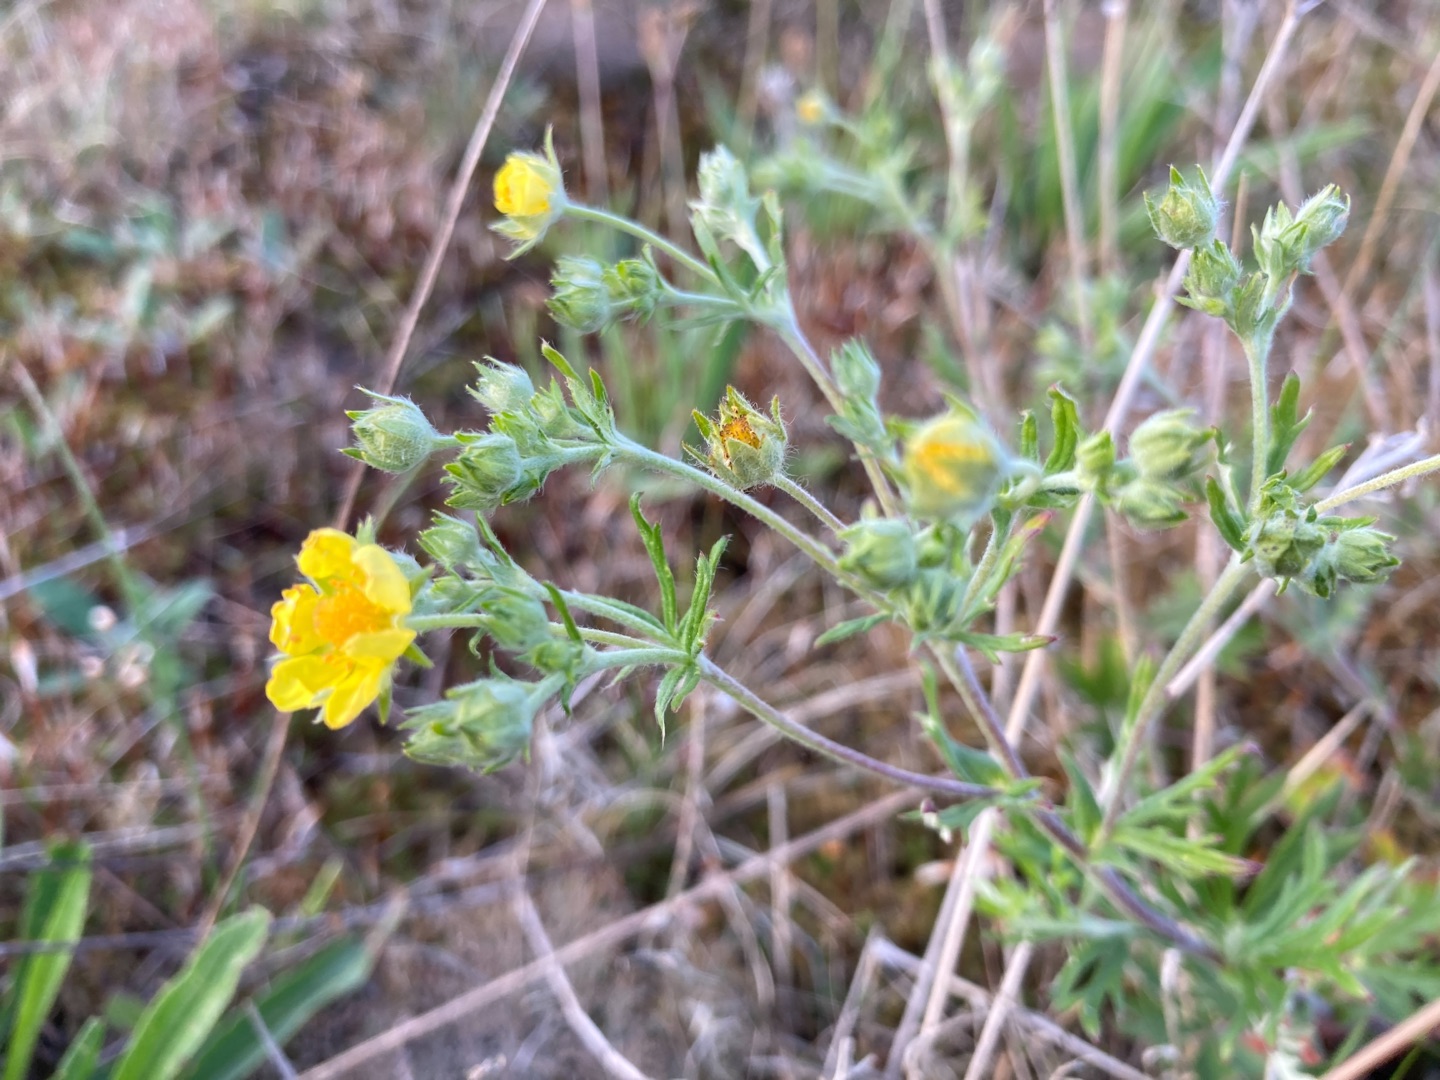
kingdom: Plantae
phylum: Tracheophyta
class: Magnoliopsida
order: Rosales
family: Rosaceae
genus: Potentilla
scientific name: Potentilla argentea
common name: Sølv-potentil
